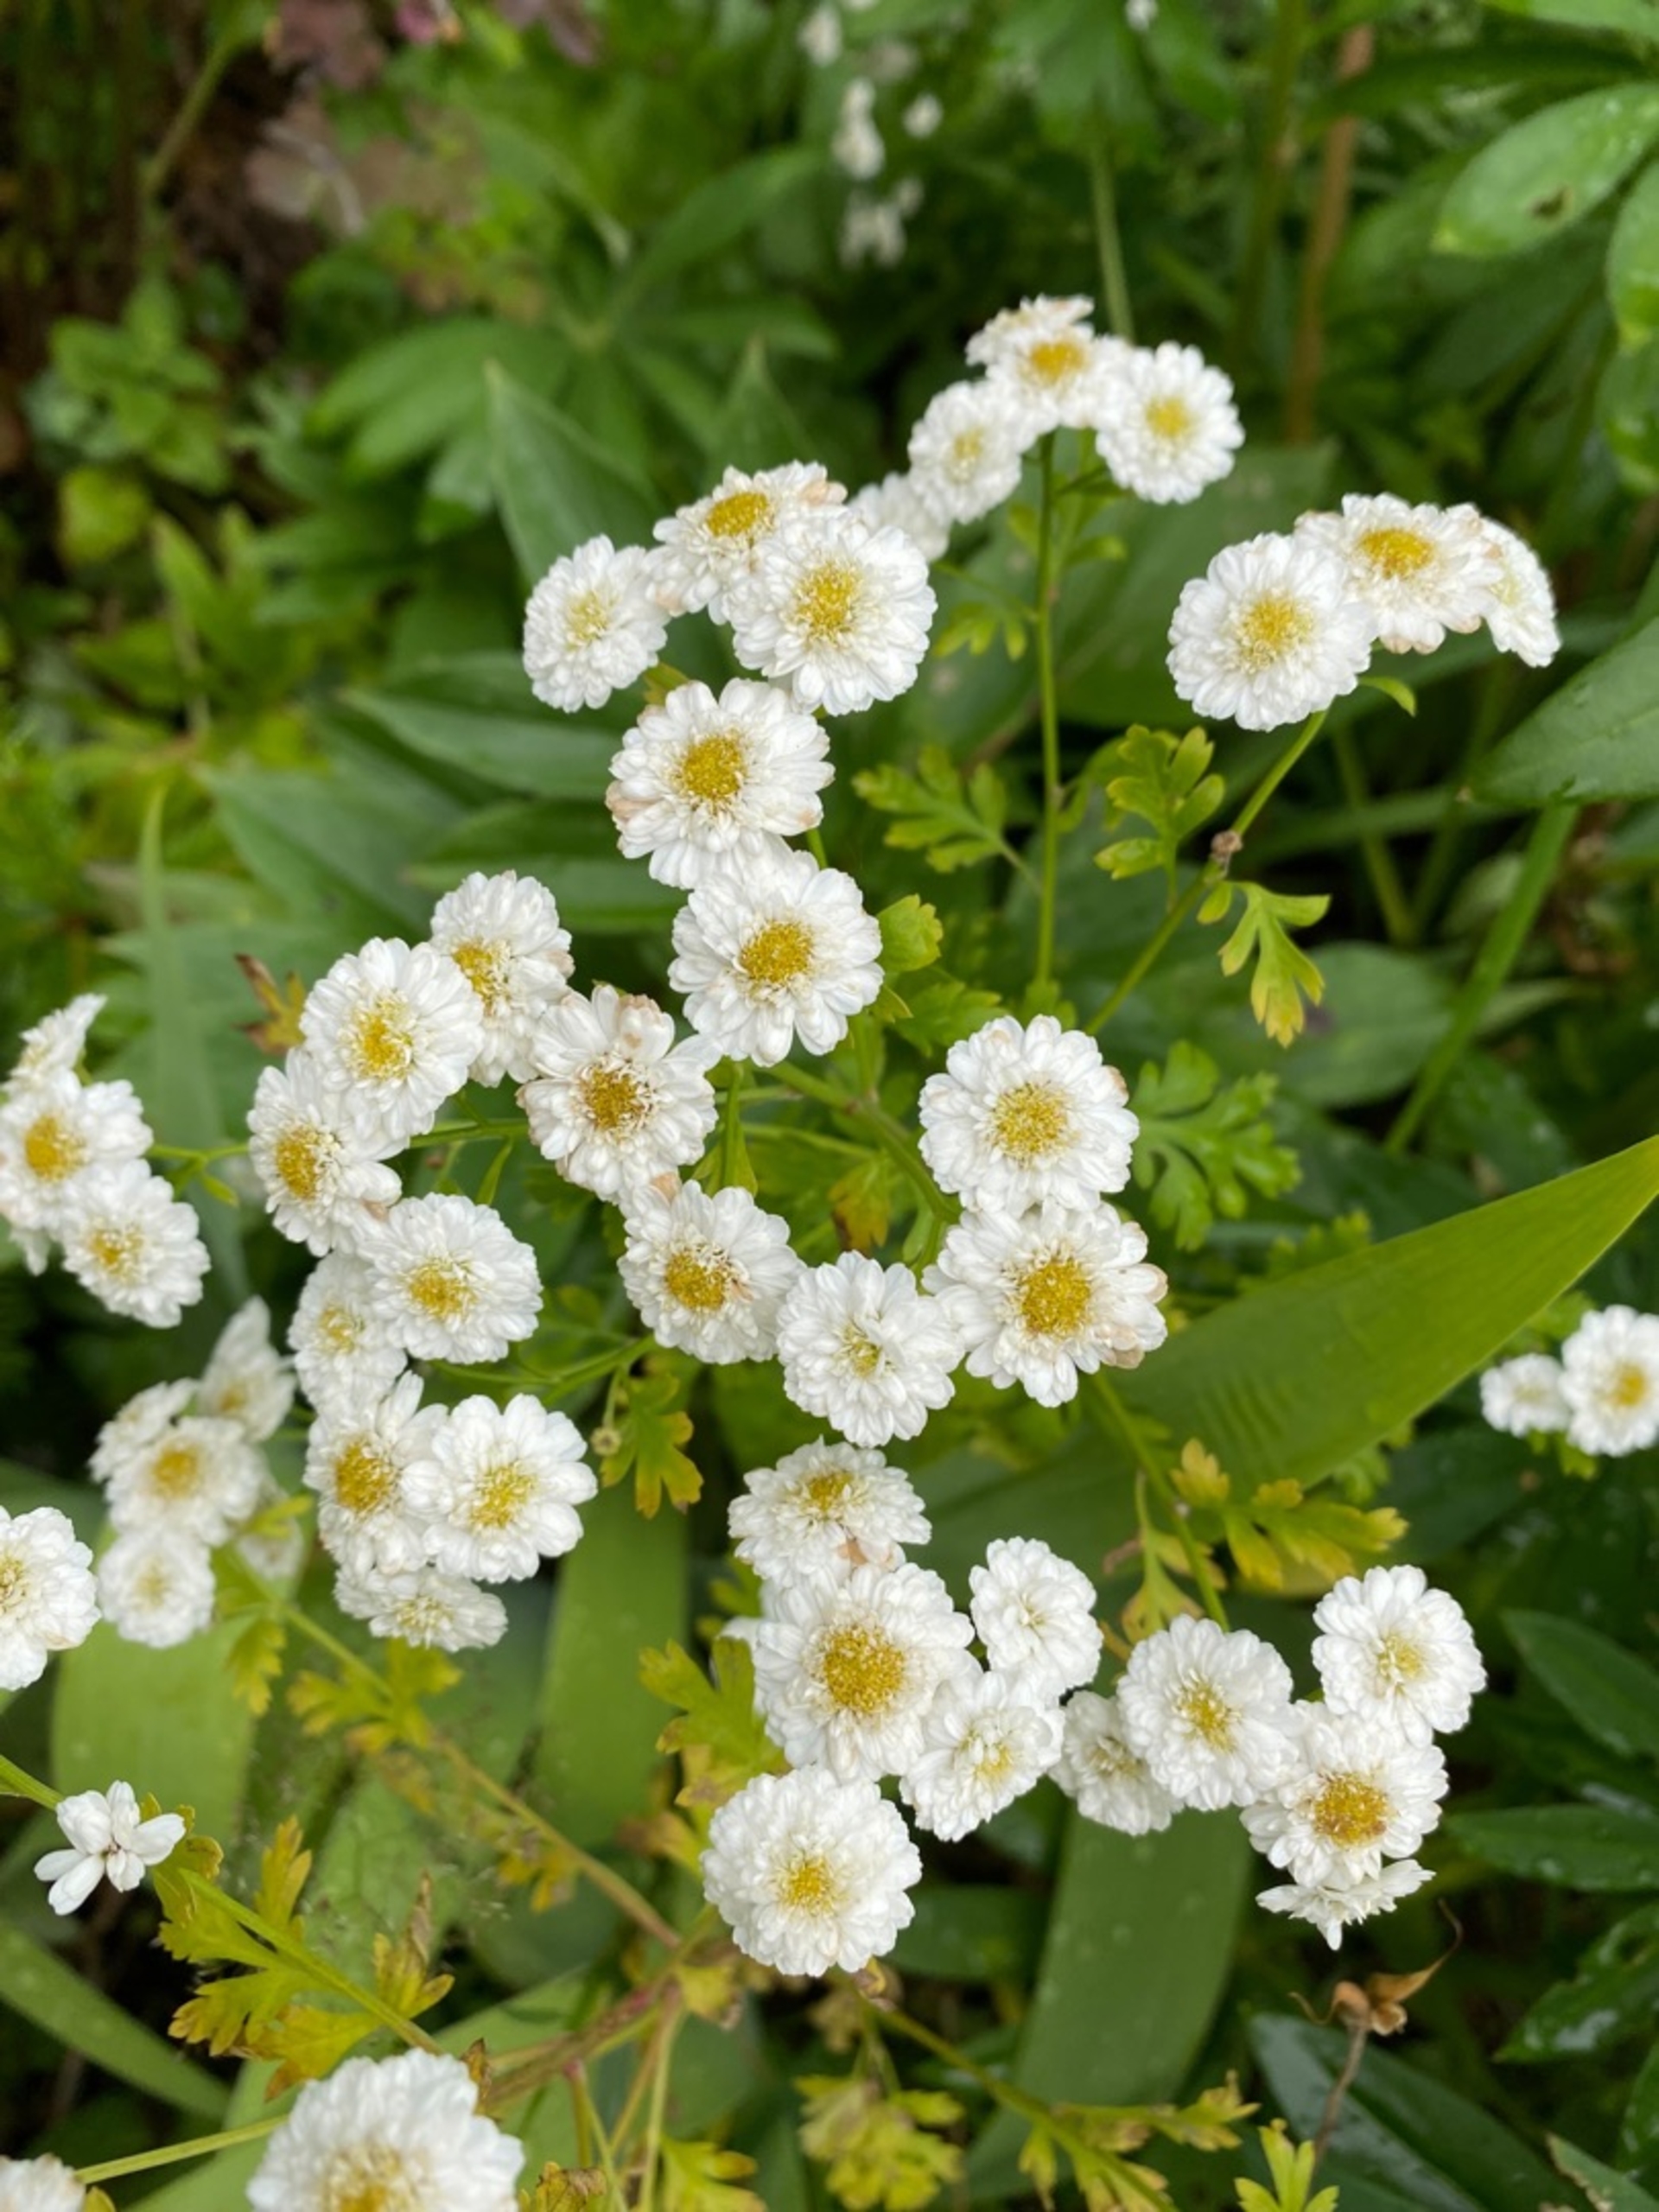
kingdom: Plantae
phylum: Tracheophyta
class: Magnoliopsida
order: Asterales
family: Asteraceae
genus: Tanacetum
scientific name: Tanacetum parthenium
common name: Matrem
